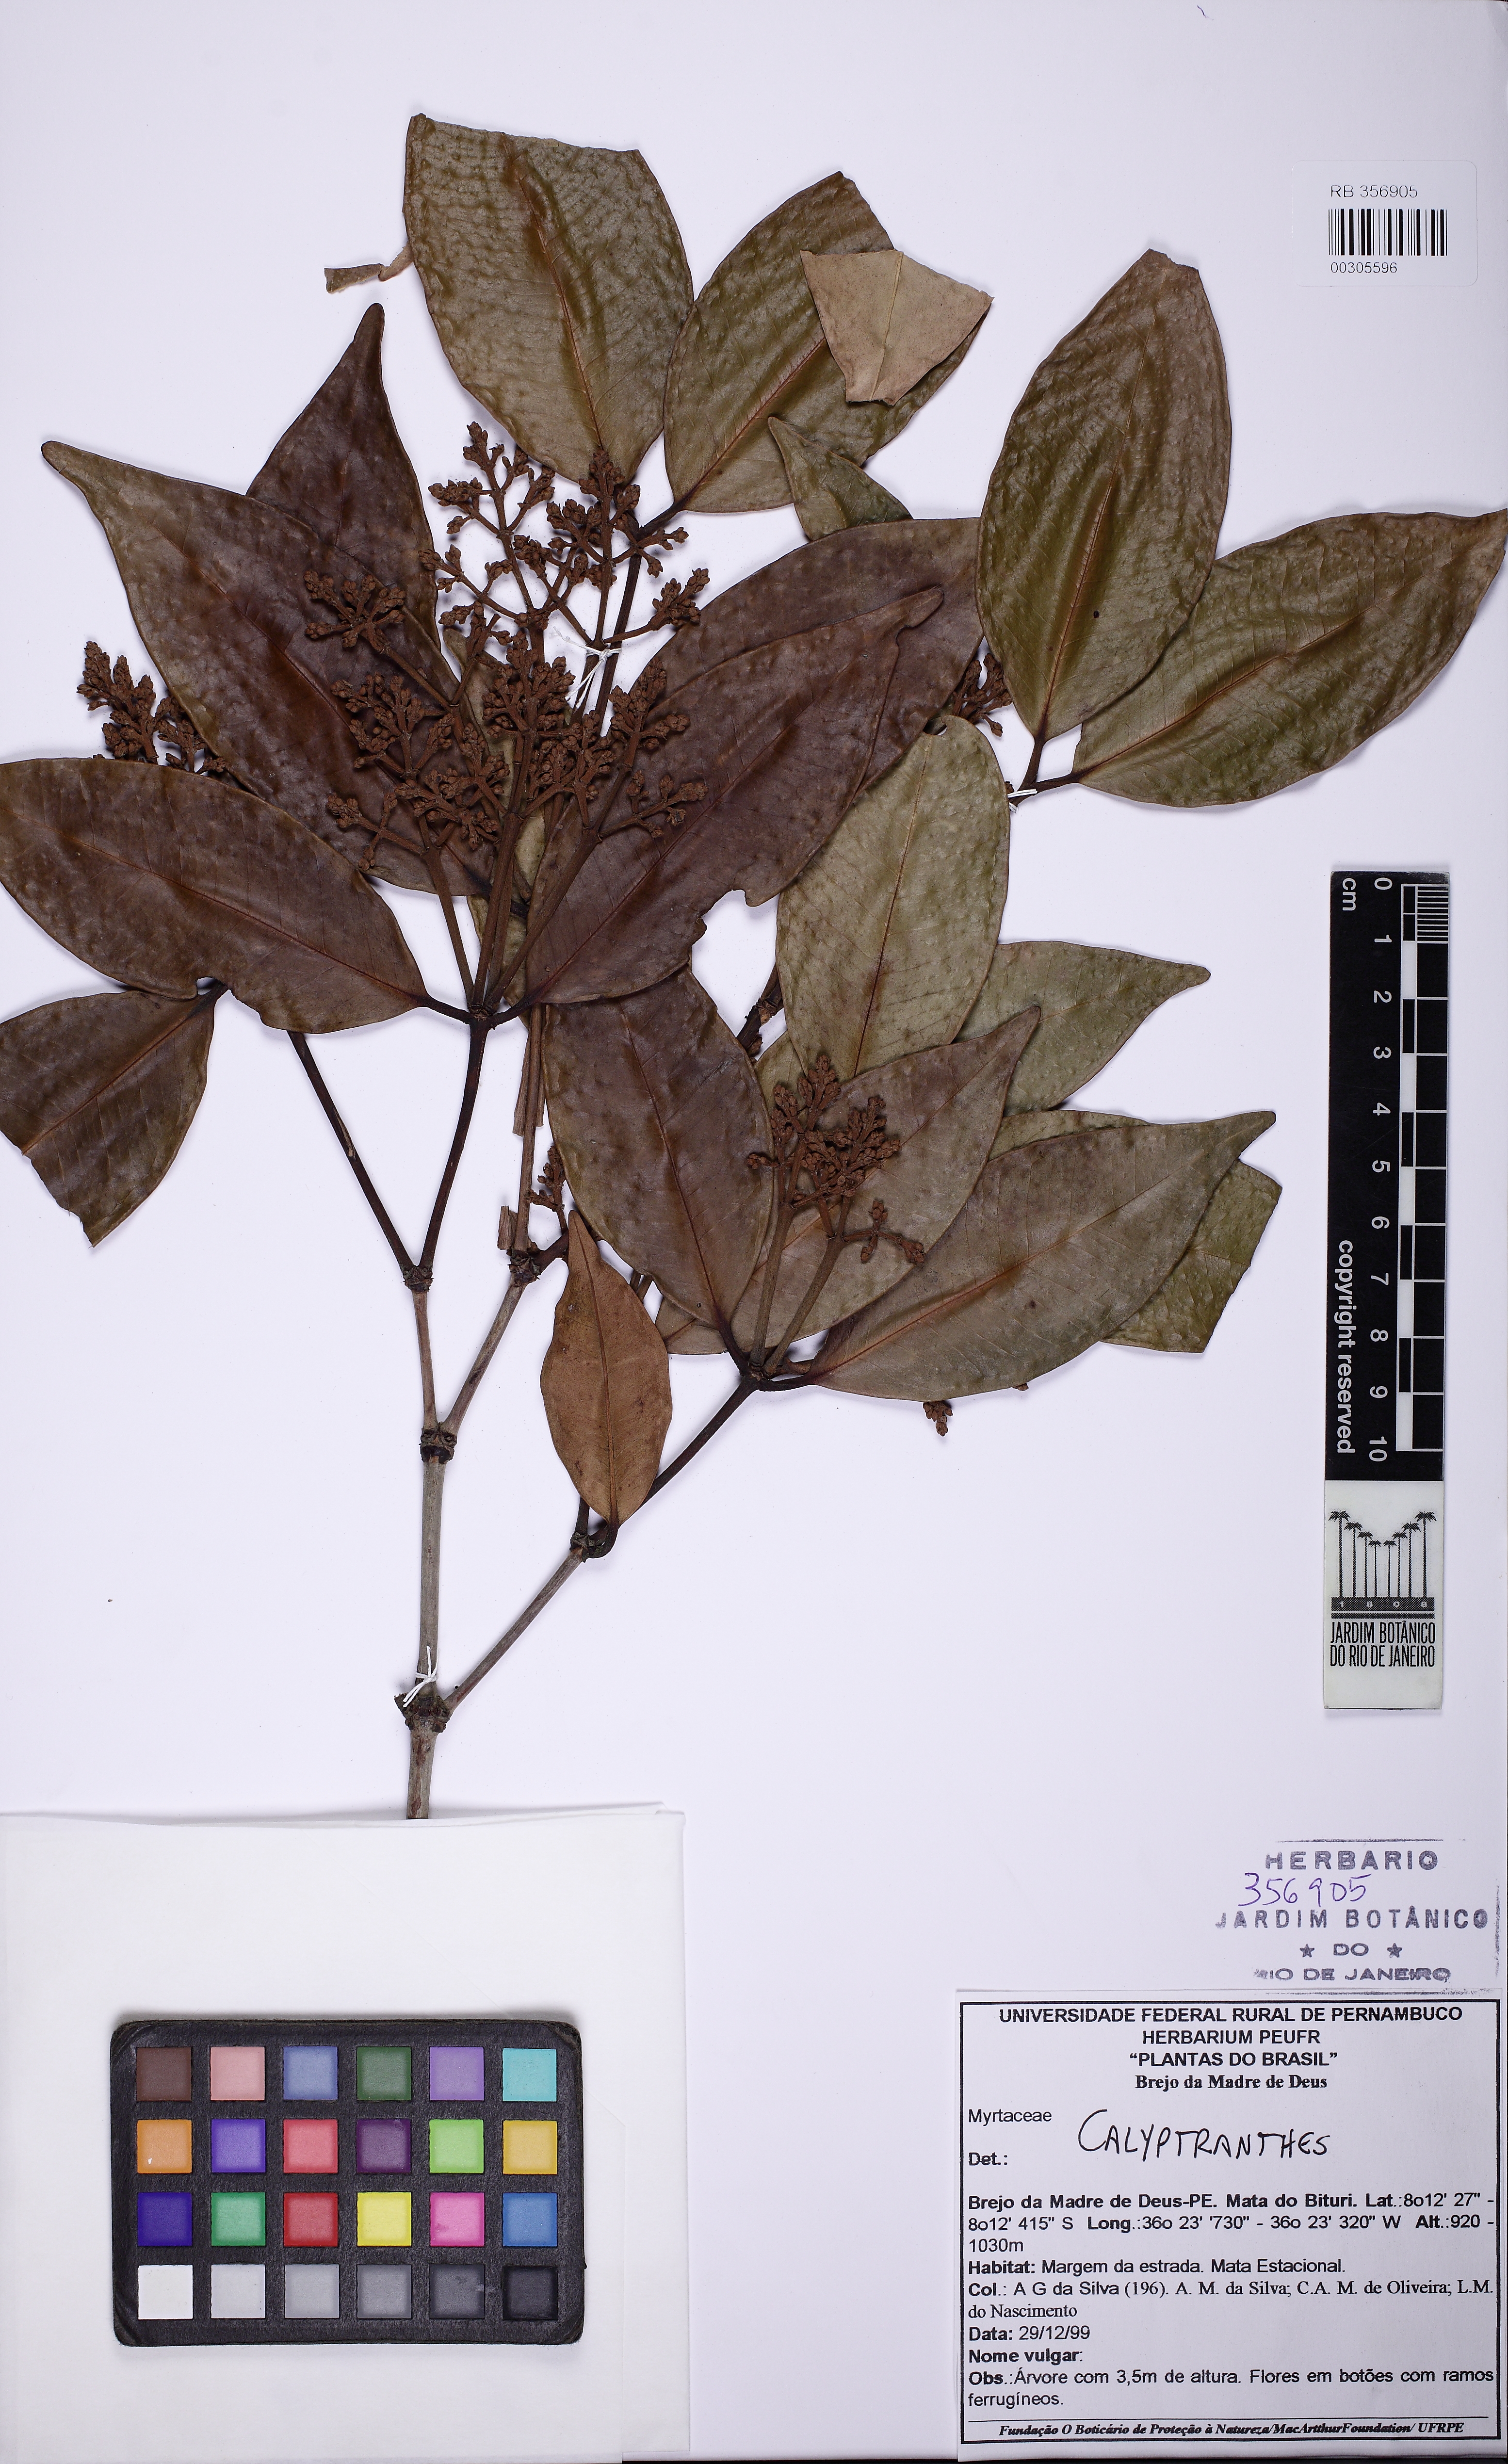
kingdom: Plantae
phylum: Tracheophyta
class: Magnoliopsida
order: Myrtales
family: Myrtaceae
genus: Calyptranthes
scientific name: Calyptranthes
